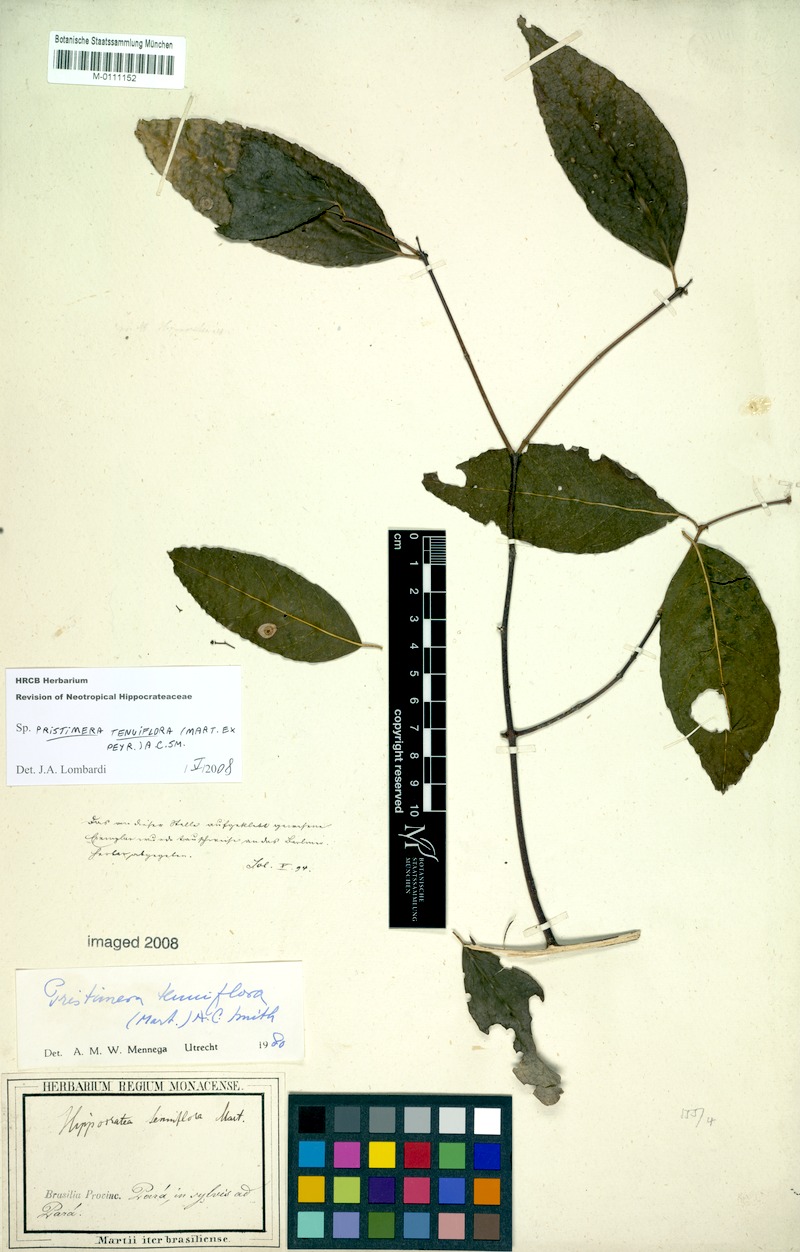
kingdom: Plantae
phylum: Tracheophyta
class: Magnoliopsida
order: Celastrales
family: Celastraceae
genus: Pristimera
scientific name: Pristimera tenuiflora
